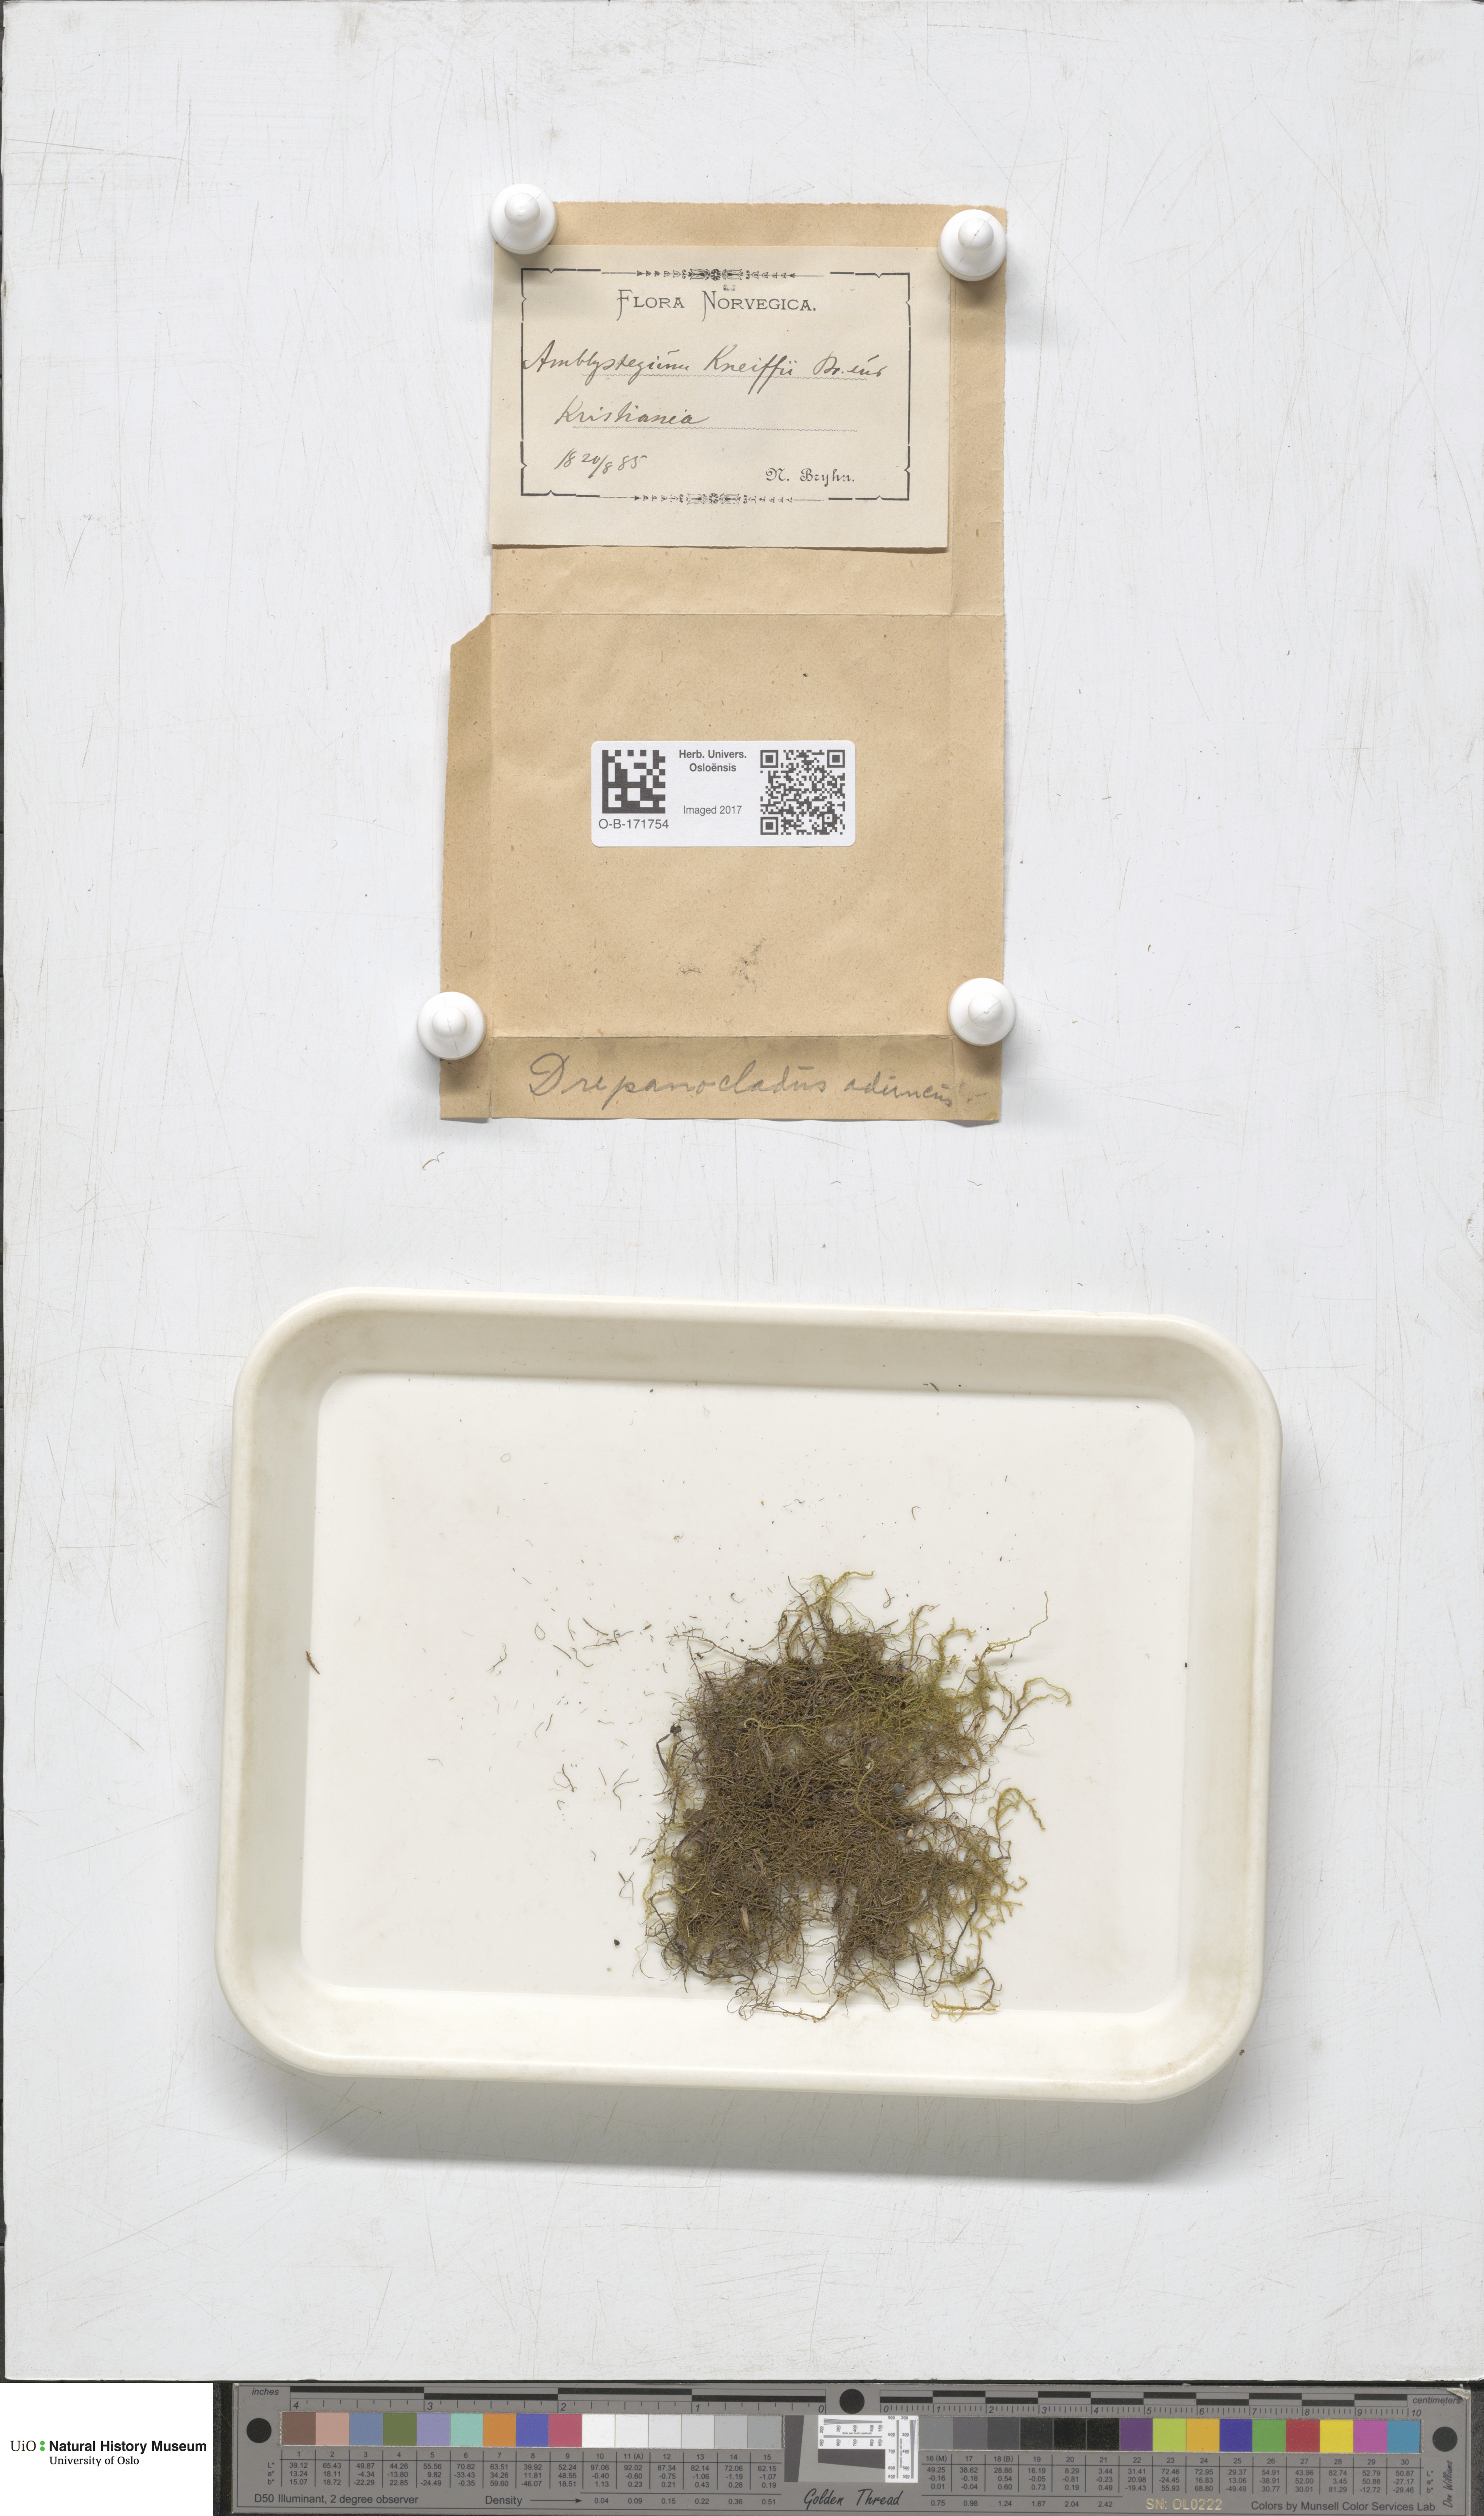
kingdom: Plantae
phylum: Bryophyta
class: Bryopsida
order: Hypnales
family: Amblystegiaceae
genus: Drepanocladus
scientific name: Drepanocladus aduncus
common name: Knieff's hook moss
